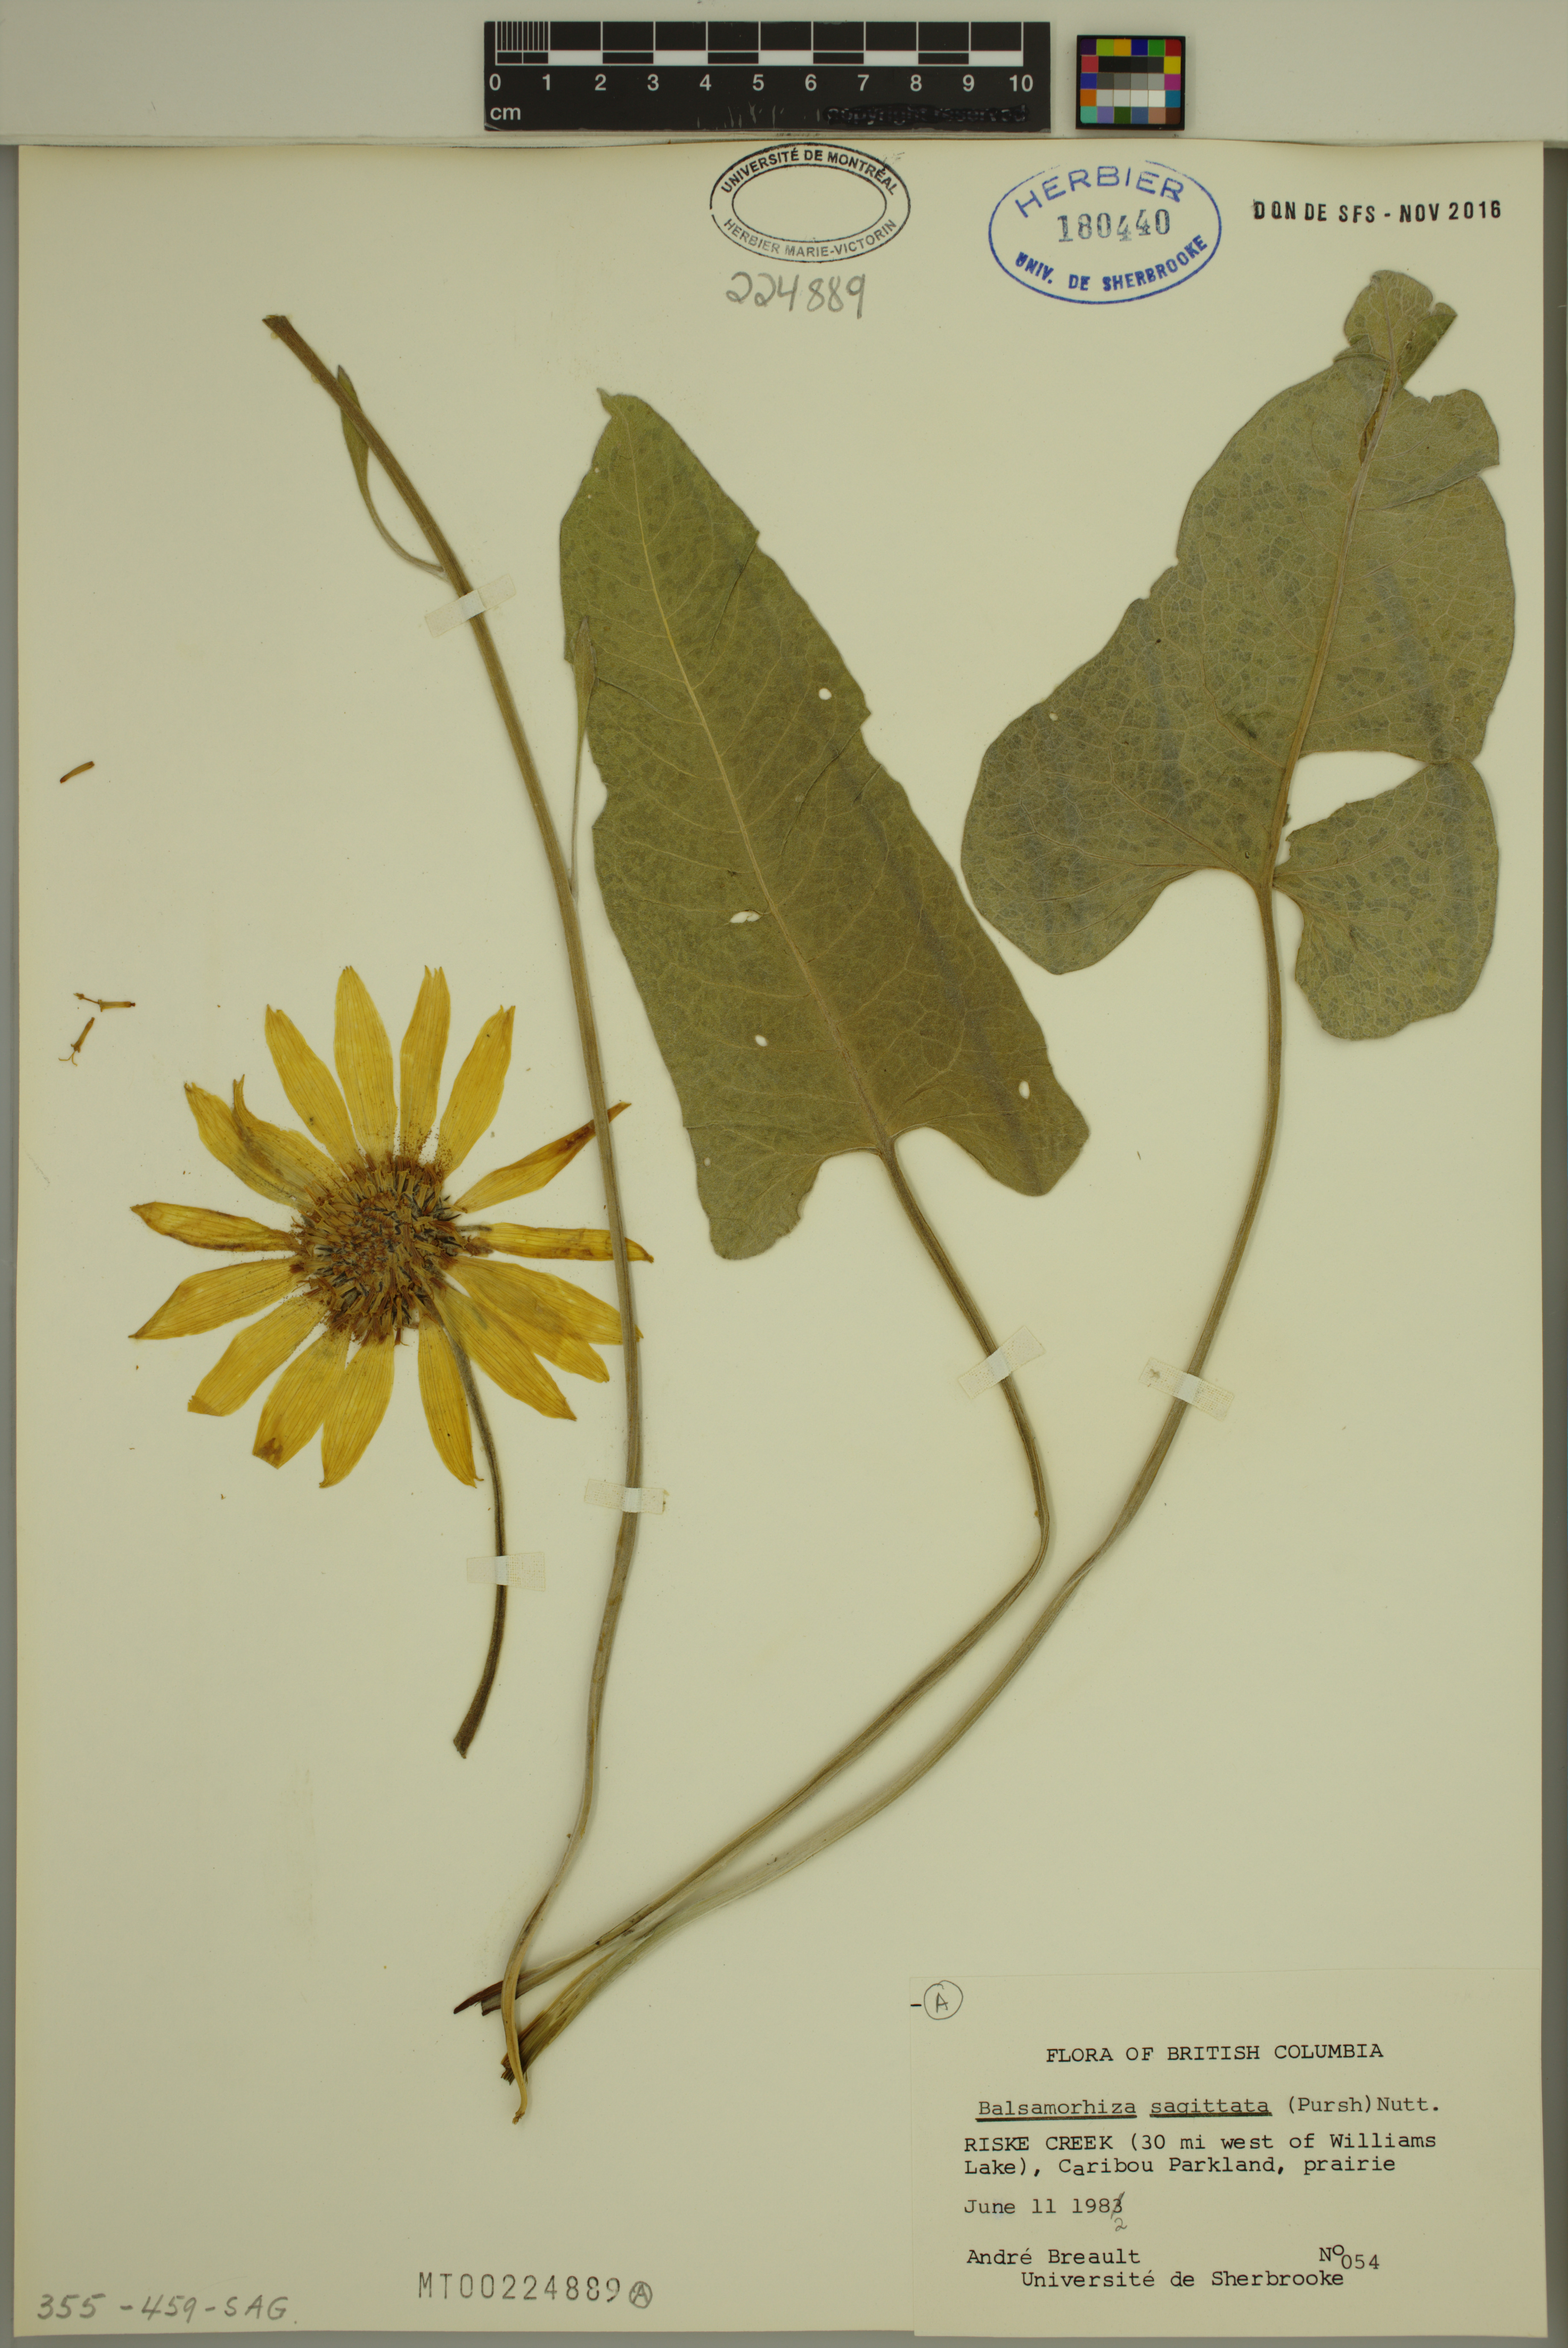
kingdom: Plantae
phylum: Tracheophyta
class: Magnoliopsida
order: Asterales
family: Asteraceae
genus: Wyethia
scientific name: Wyethia sagittata
